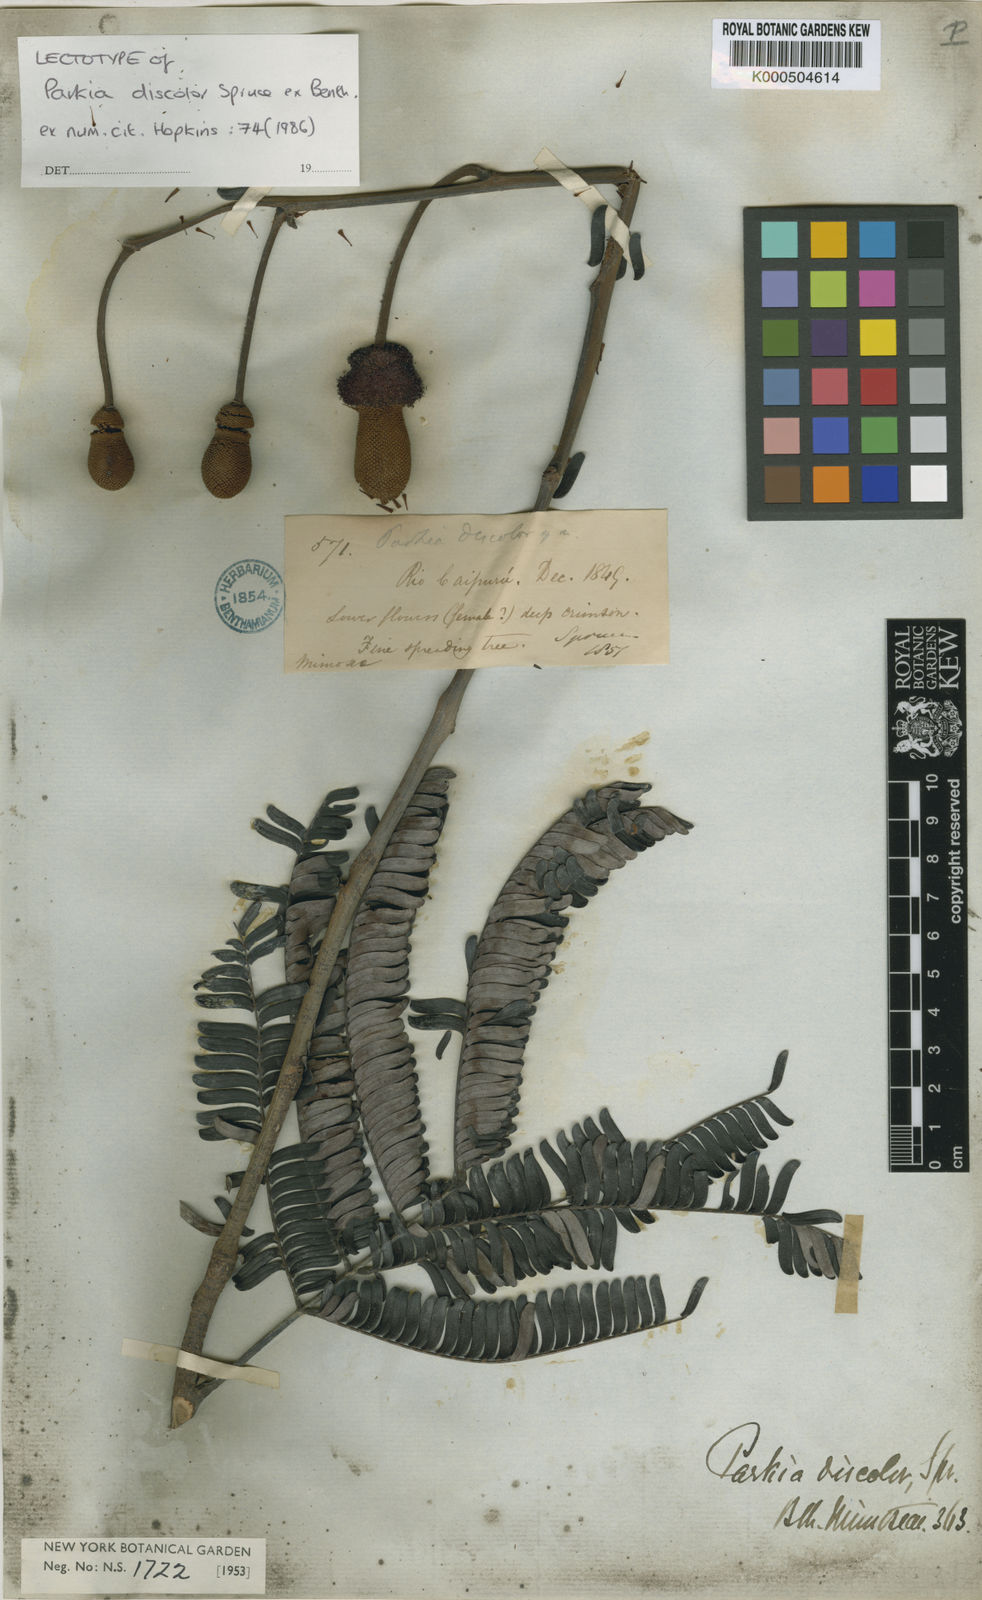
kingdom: Plantae
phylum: Tracheophyta
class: Magnoliopsida
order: Fabales
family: Fabaceae
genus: Parkia
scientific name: Parkia discolor
